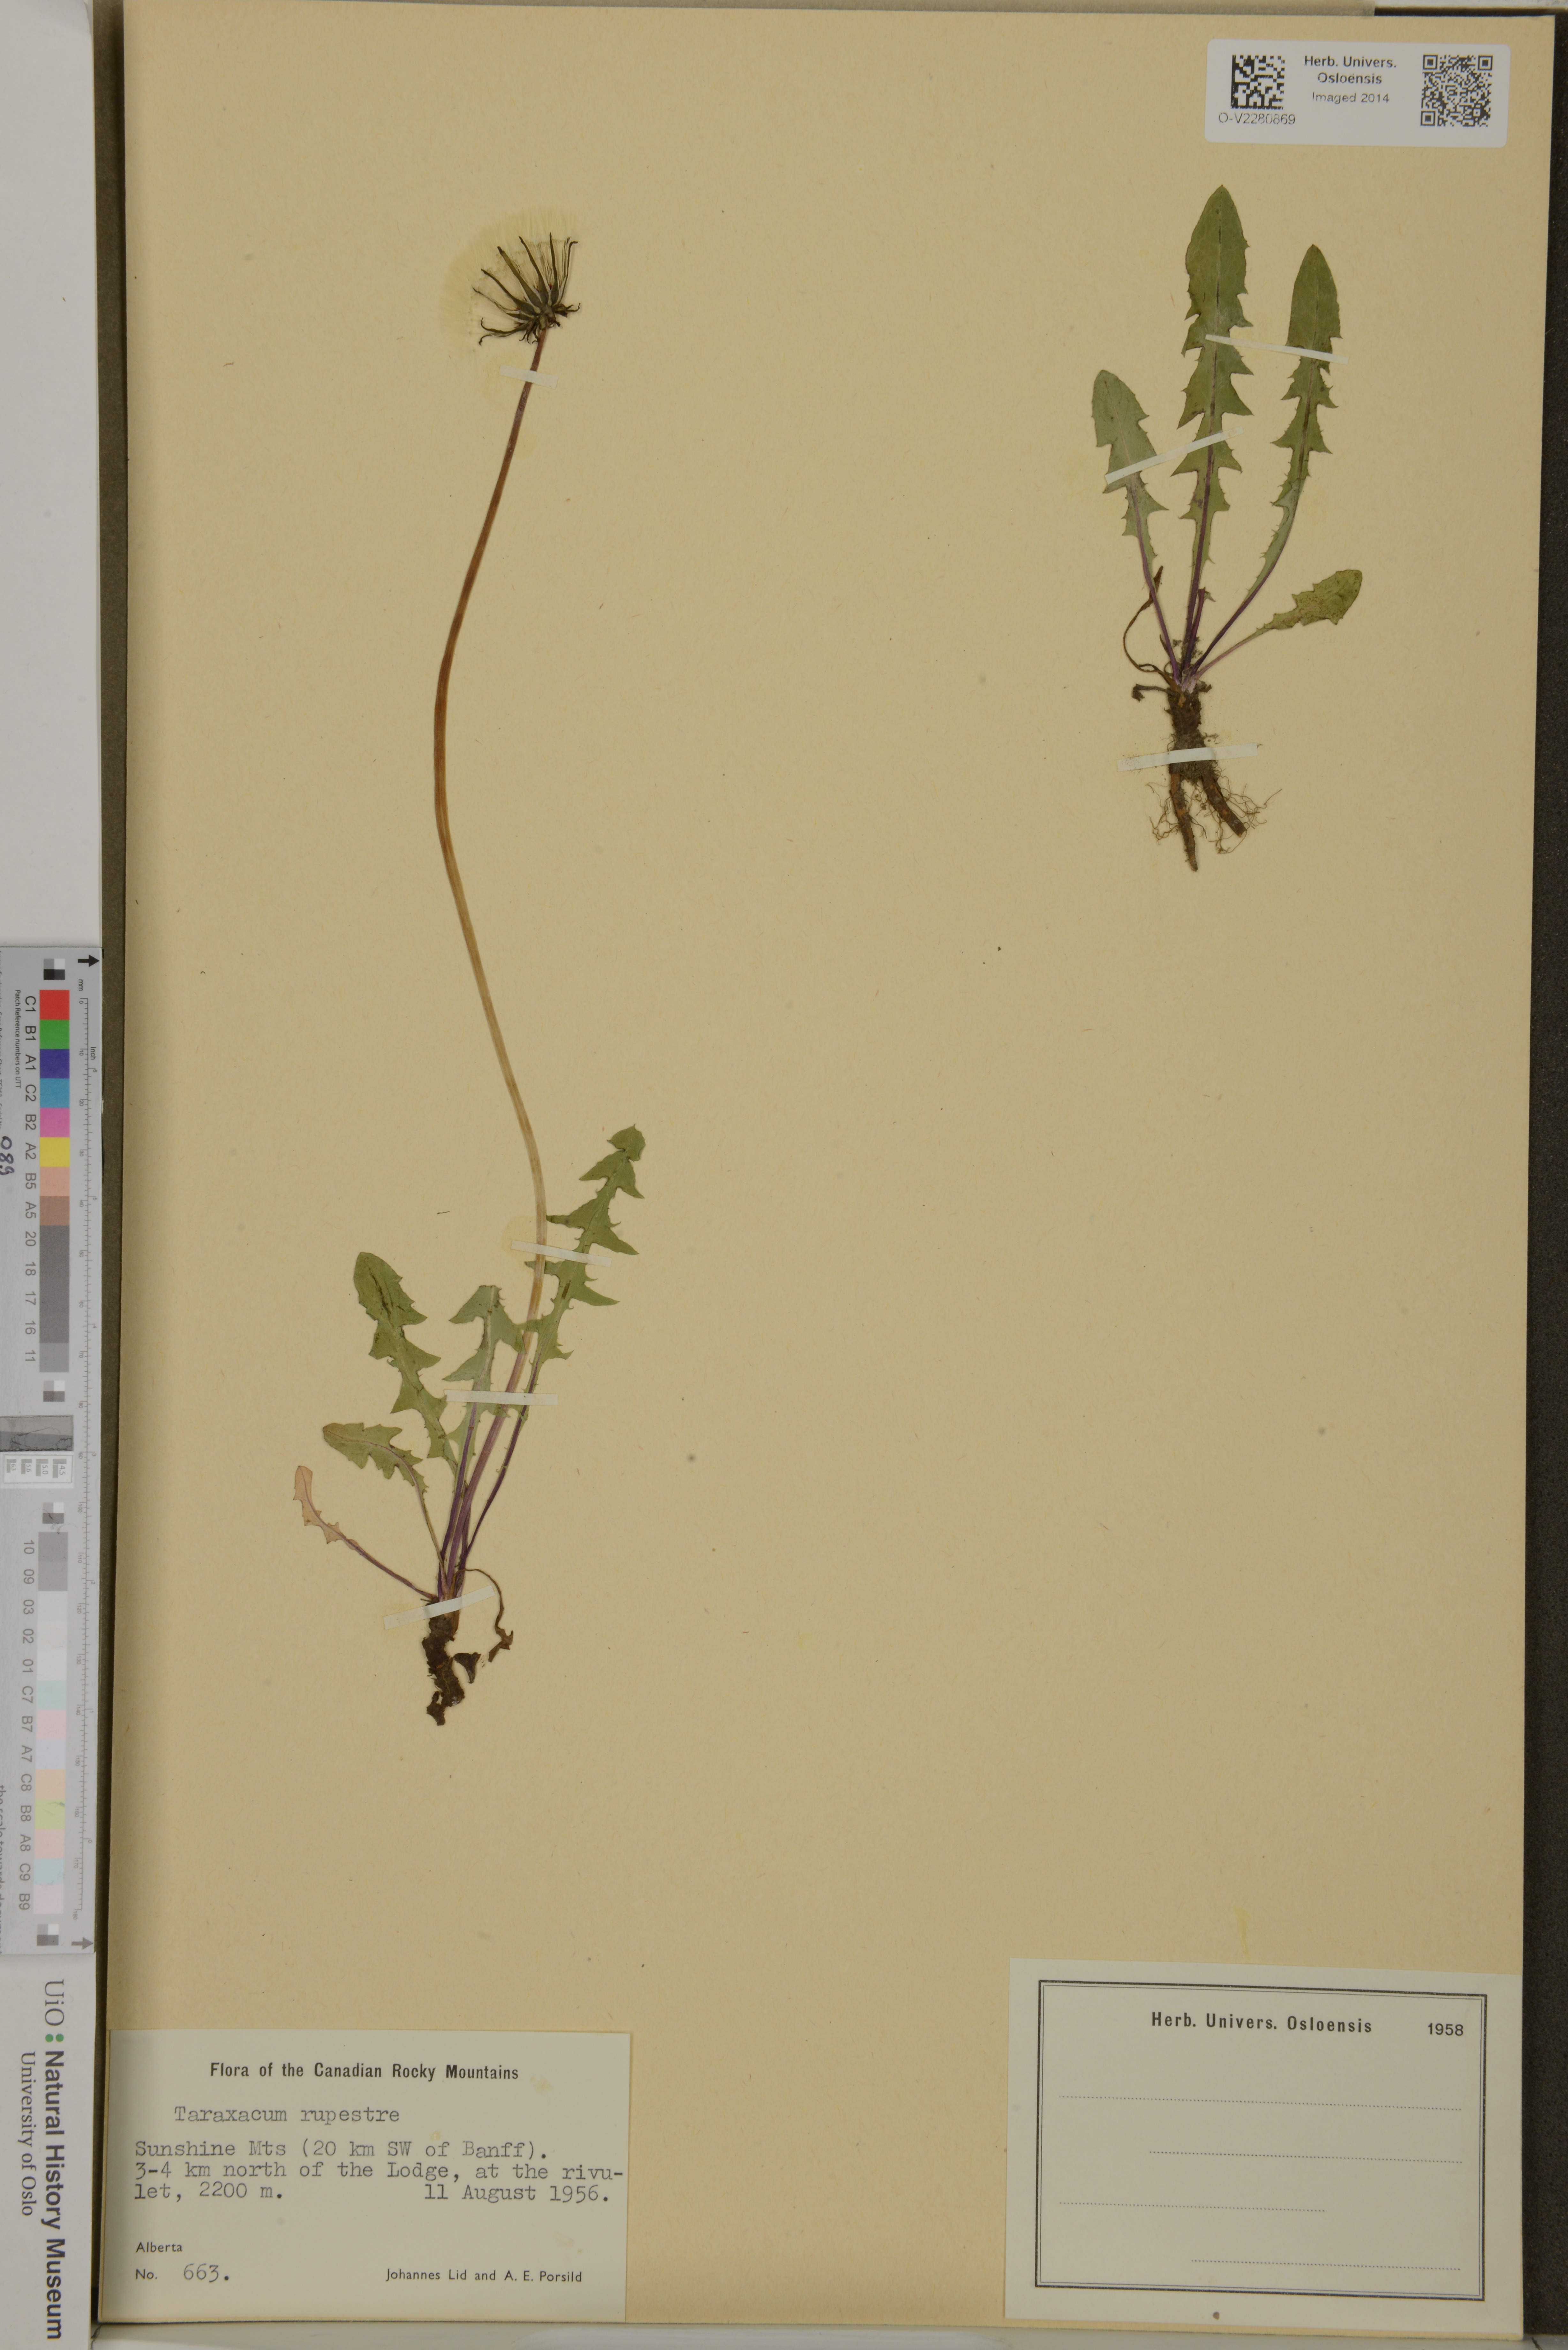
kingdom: Plantae
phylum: Tracheophyta
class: Magnoliopsida
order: Asterales
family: Asteraceae
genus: Taraxacum
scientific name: Taraxacum
